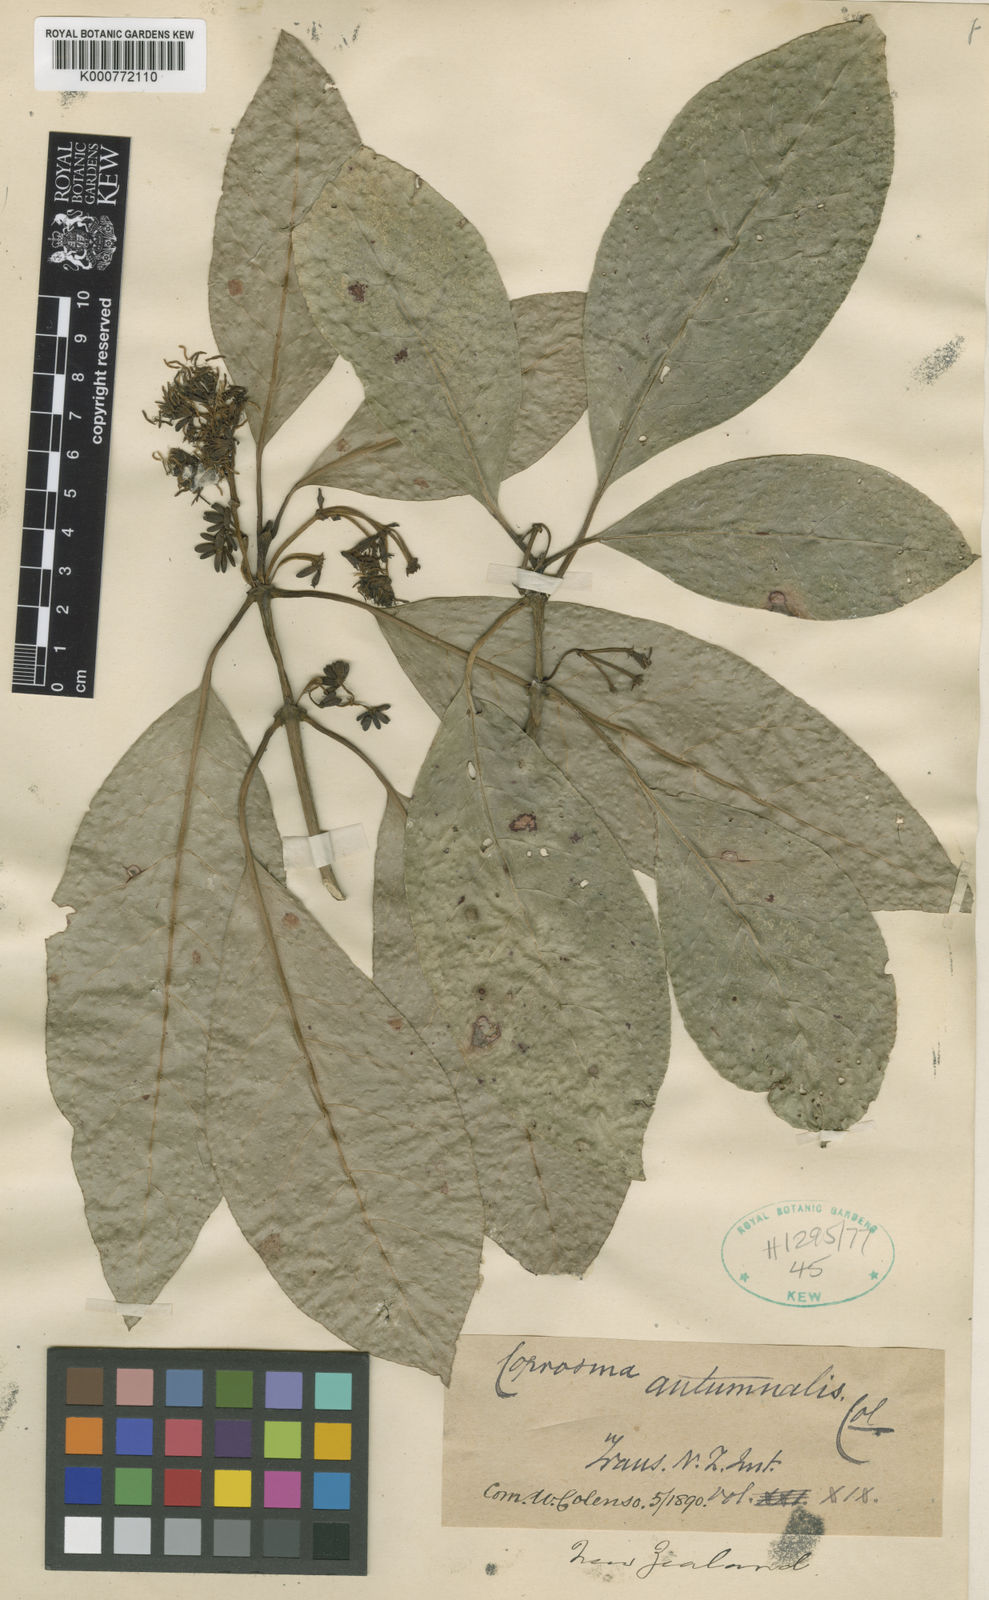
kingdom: Plantae
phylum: Tracheophyta
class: Magnoliopsida
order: Gentianales
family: Rubiaceae
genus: Coprosma
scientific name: Coprosma lucida
